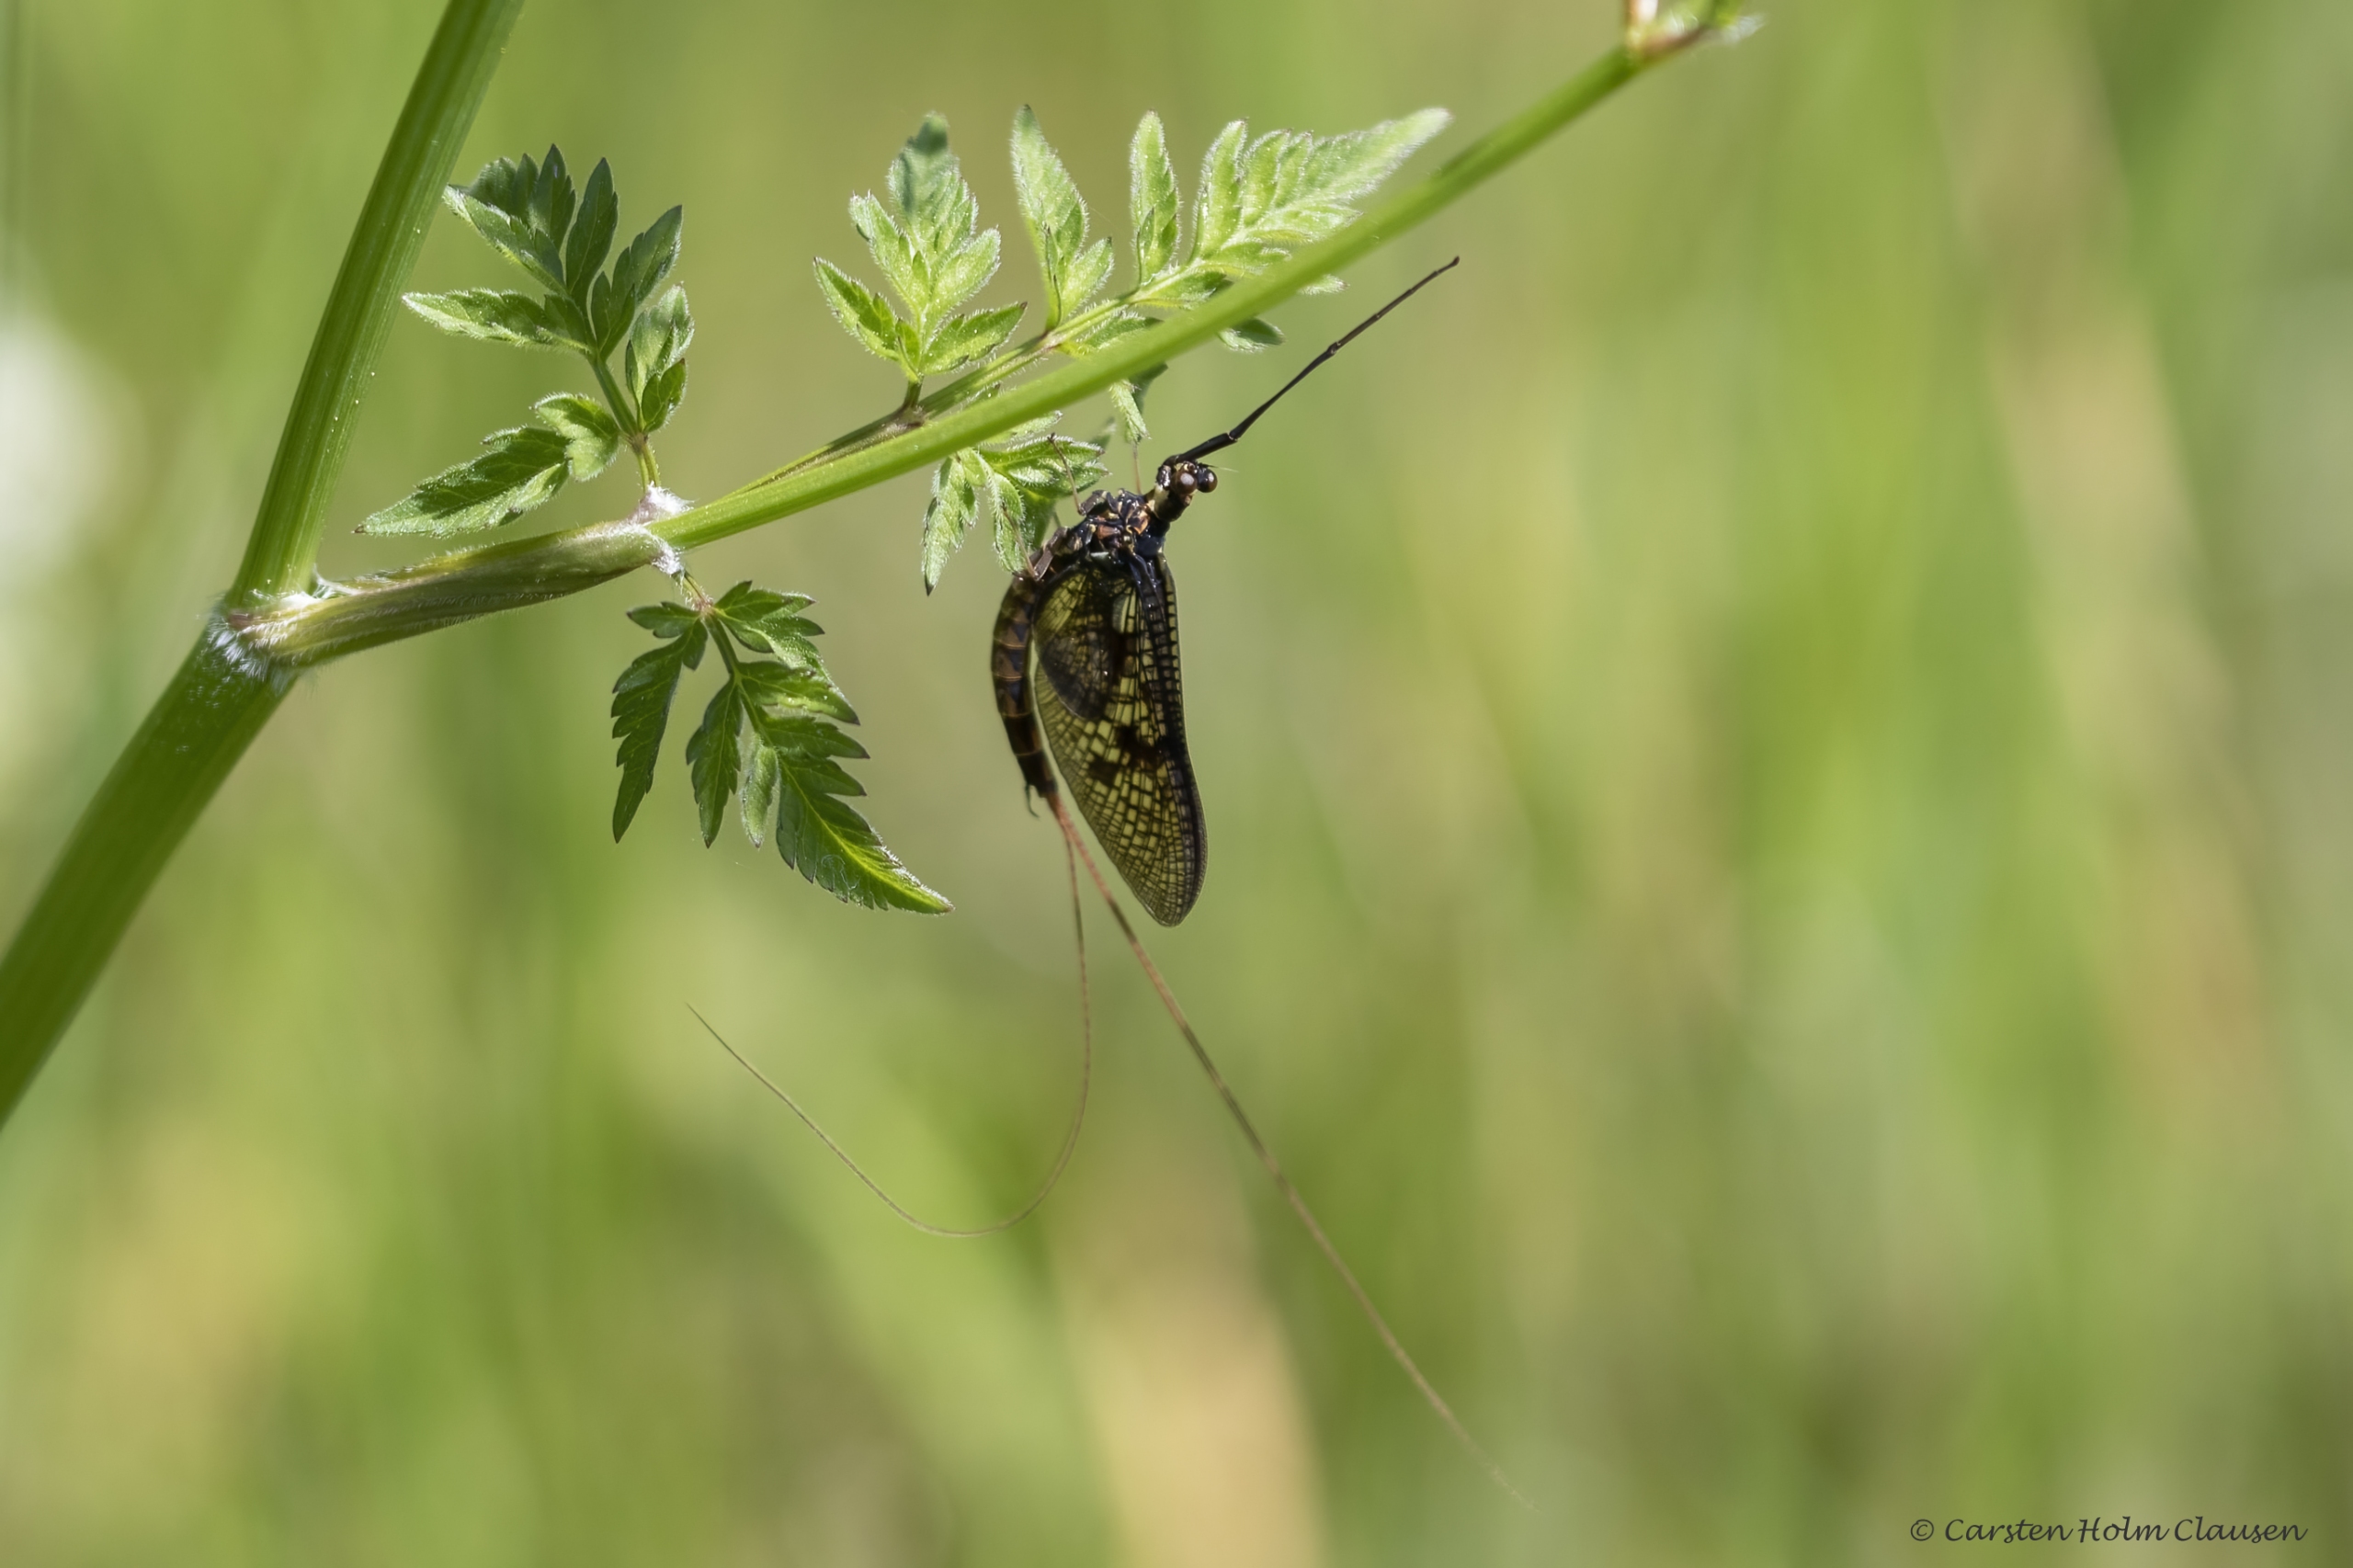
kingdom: Animalia
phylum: Arthropoda
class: Insecta
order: Ephemeroptera
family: Ephemeridae
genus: Ephemera
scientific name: Ephemera vulgata
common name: Sø-majflue
